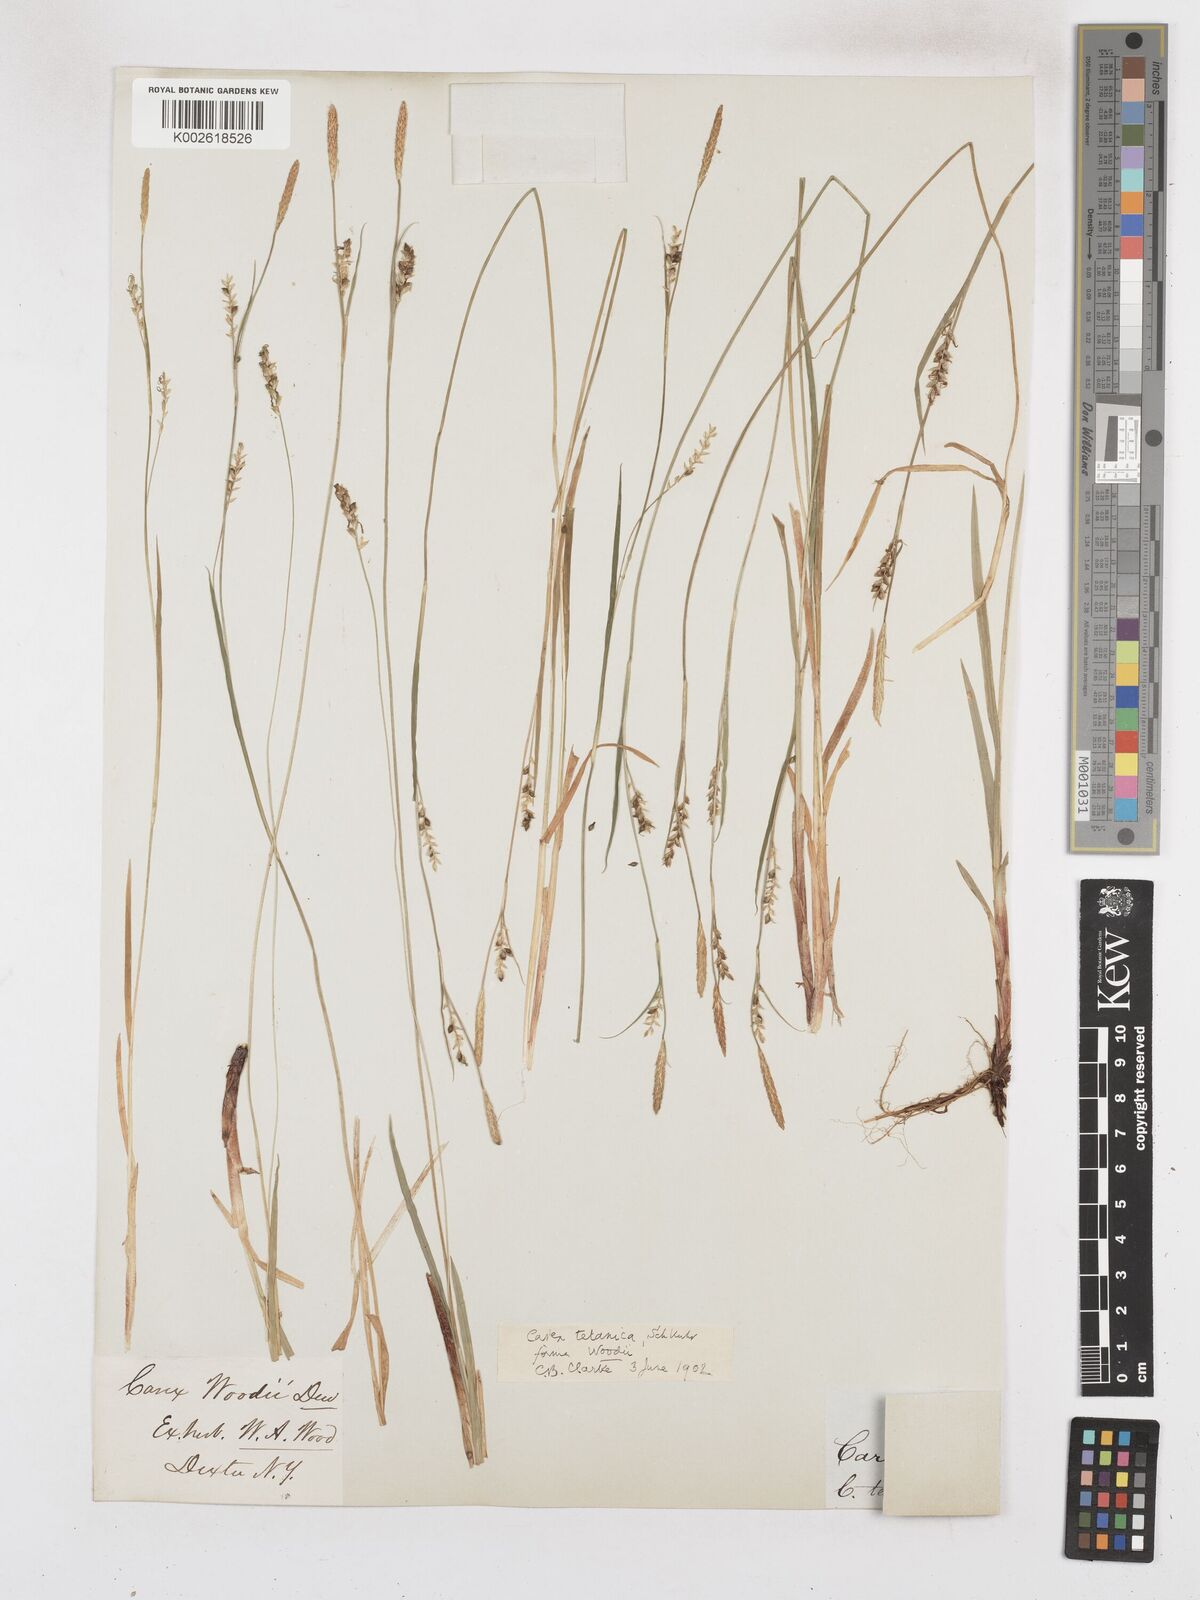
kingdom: Plantae
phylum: Tracheophyta
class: Liliopsida
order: Poales
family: Cyperaceae
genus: Carex
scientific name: Carex tetanica
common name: Rigid sedge
